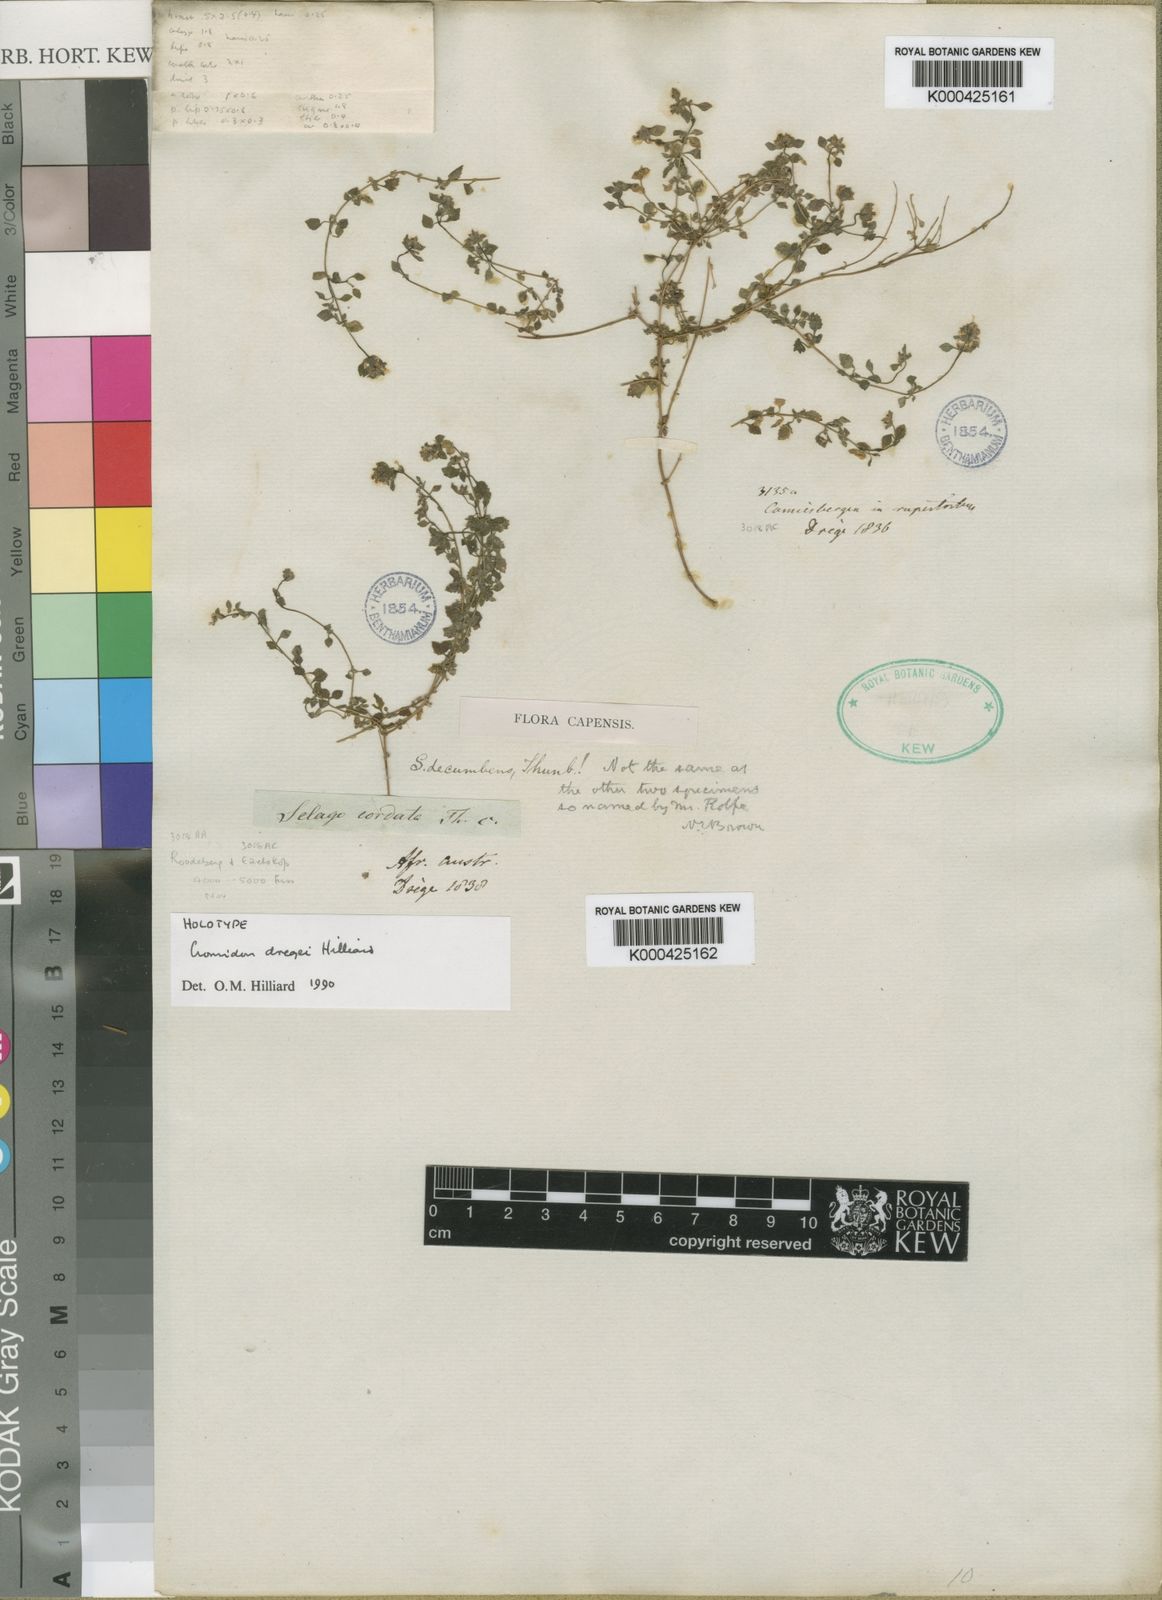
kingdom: Plantae
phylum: Tracheophyta
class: Magnoliopsida
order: Lamiales
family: Scrophulariaceae
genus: Cromidon
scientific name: Cromidon dregei
